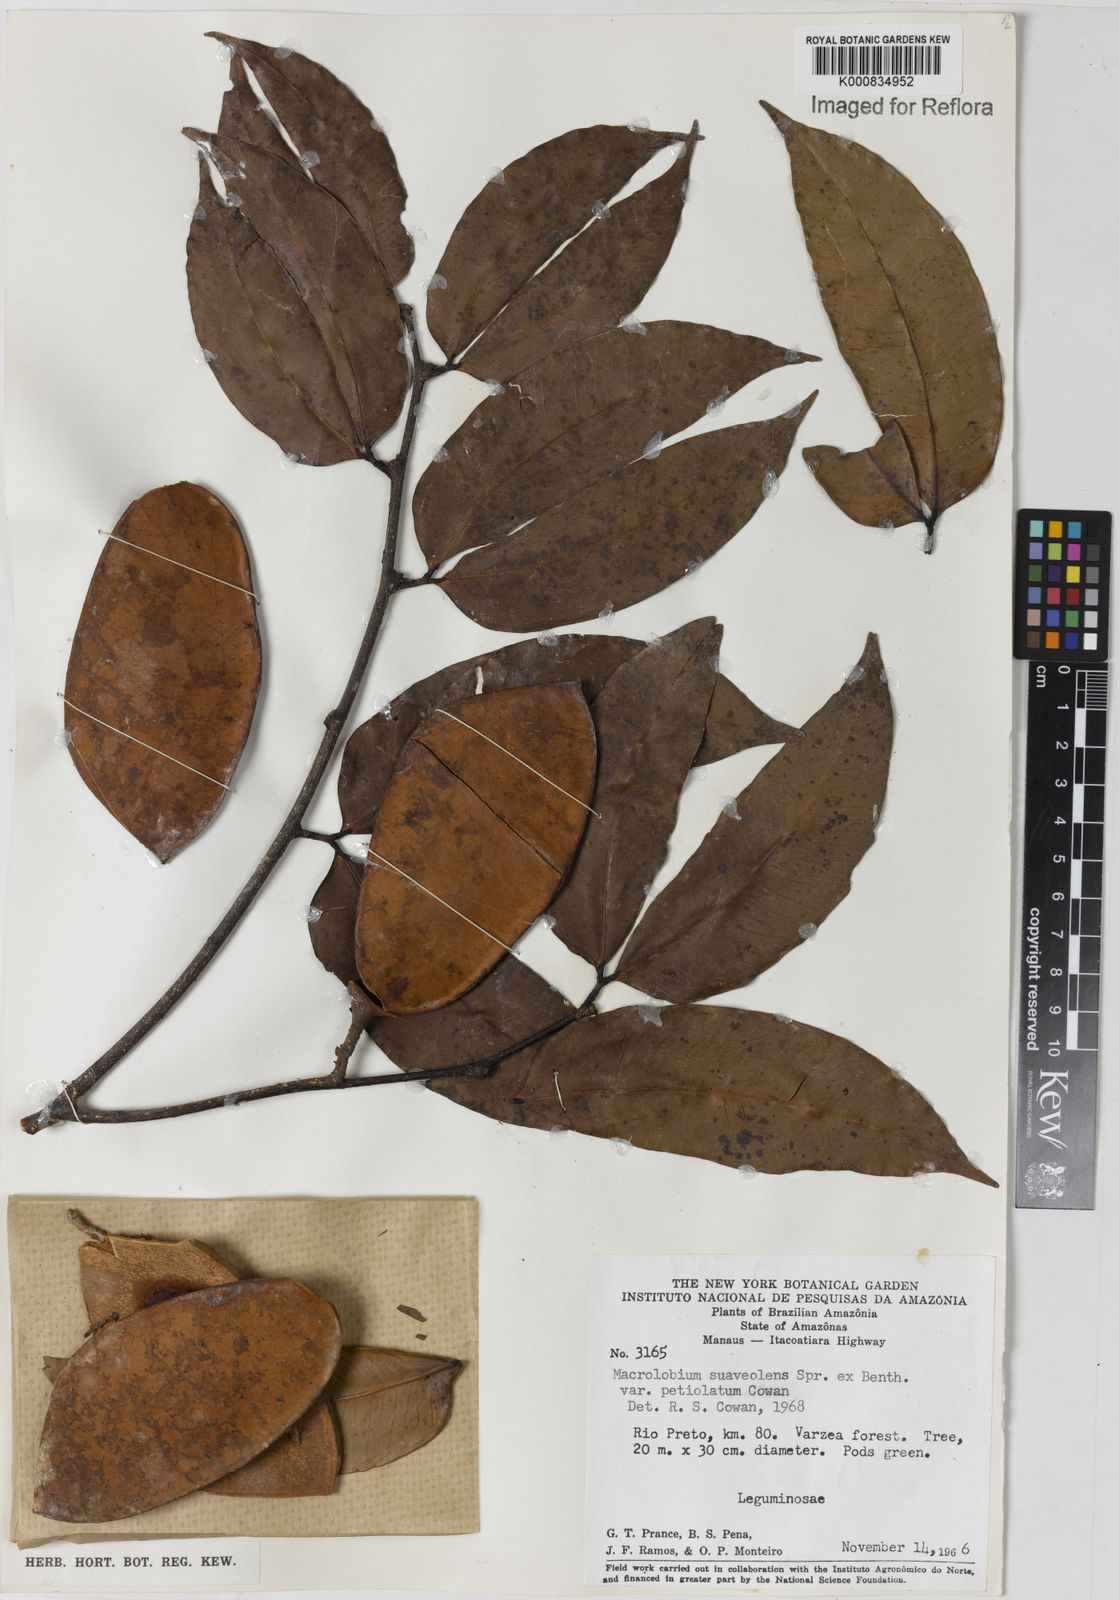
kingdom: Plantae
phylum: Tracheophyta
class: Magnoliopsida
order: Fabales
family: Fabaceae
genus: Macrolobium
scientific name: Macrolobium suaveolens
